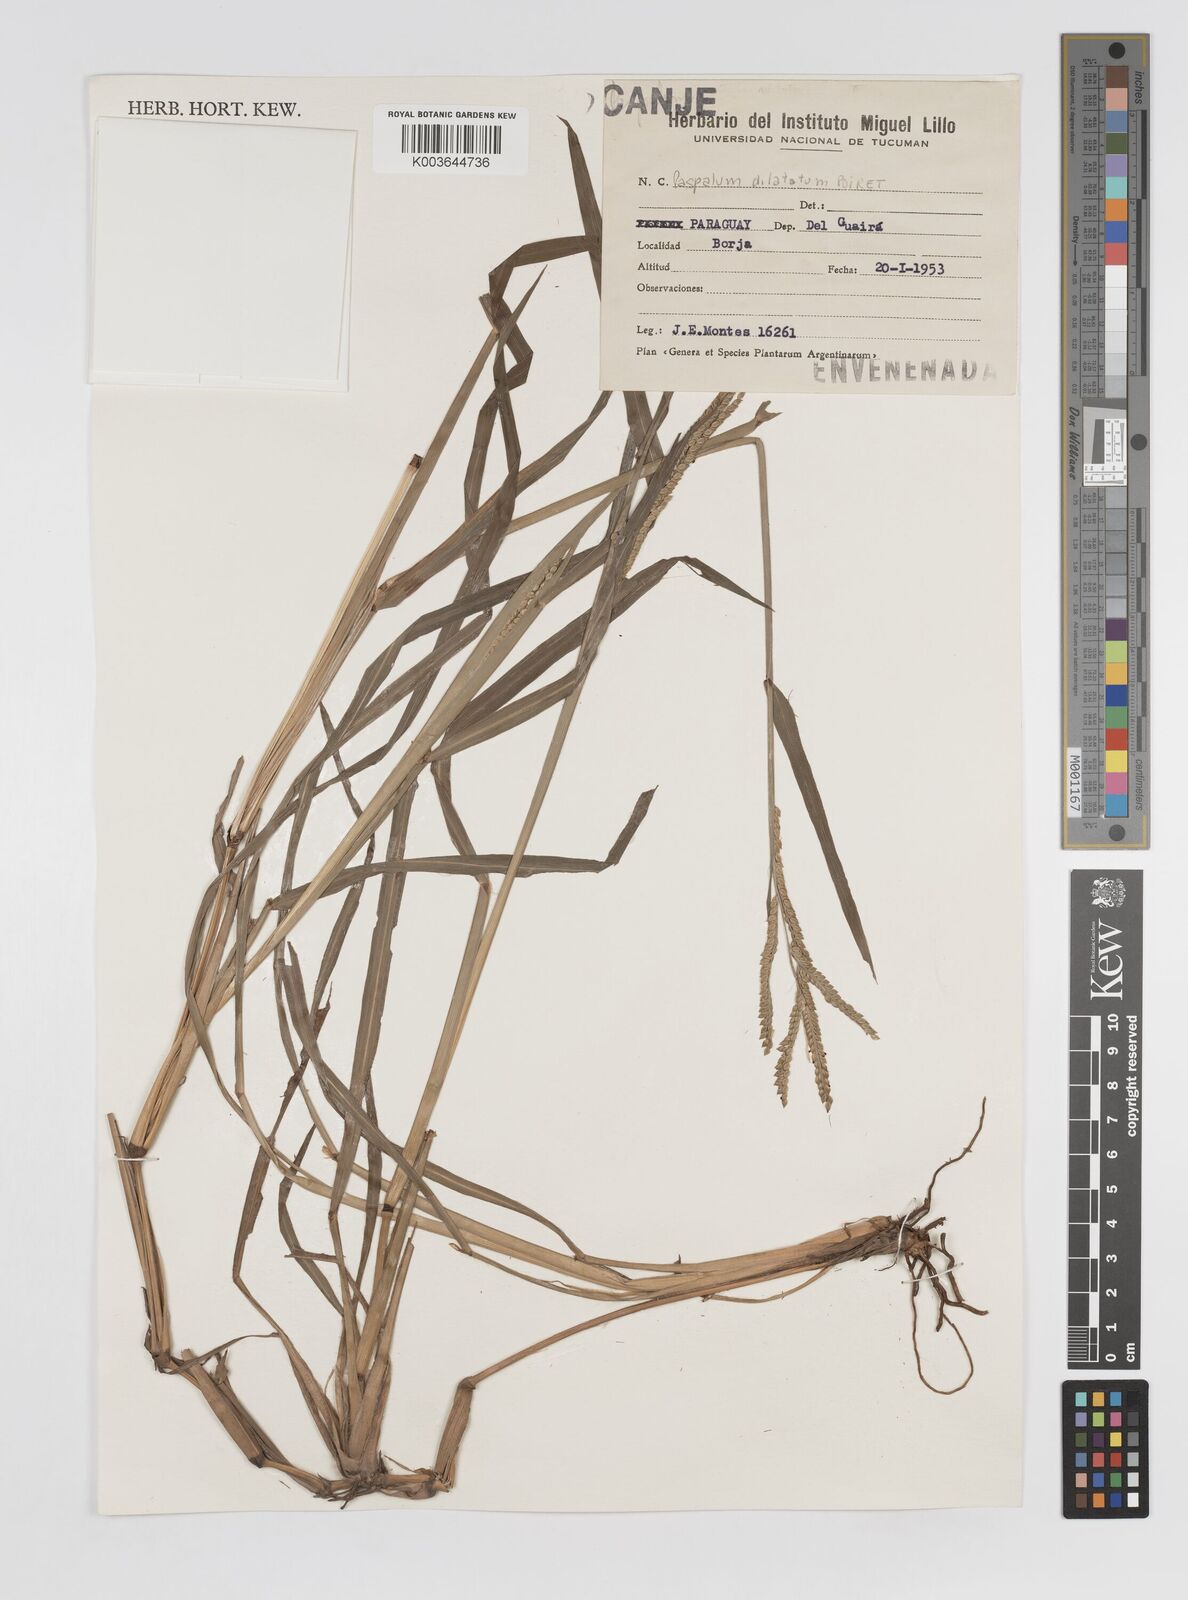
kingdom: Plantae
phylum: Tracheophyta
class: Liliopsida
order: Poales
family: Poaceae
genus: Paspalum
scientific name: Paspalum dilatatum
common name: Dallisgrass
